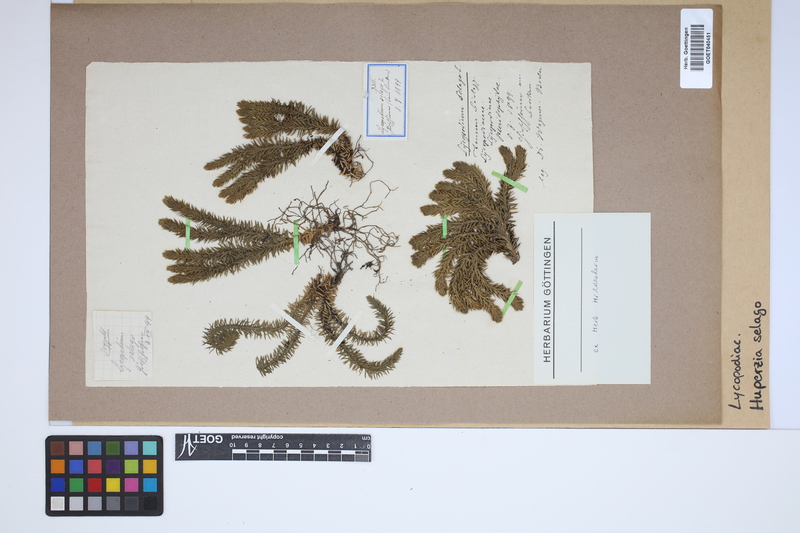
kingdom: Plantae
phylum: Tracheophyta
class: Lycopodiopsida
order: Lycopodiales
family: Lycopodiaceae
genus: Huperzia
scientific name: Huperzia selago
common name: Northern firmoss
